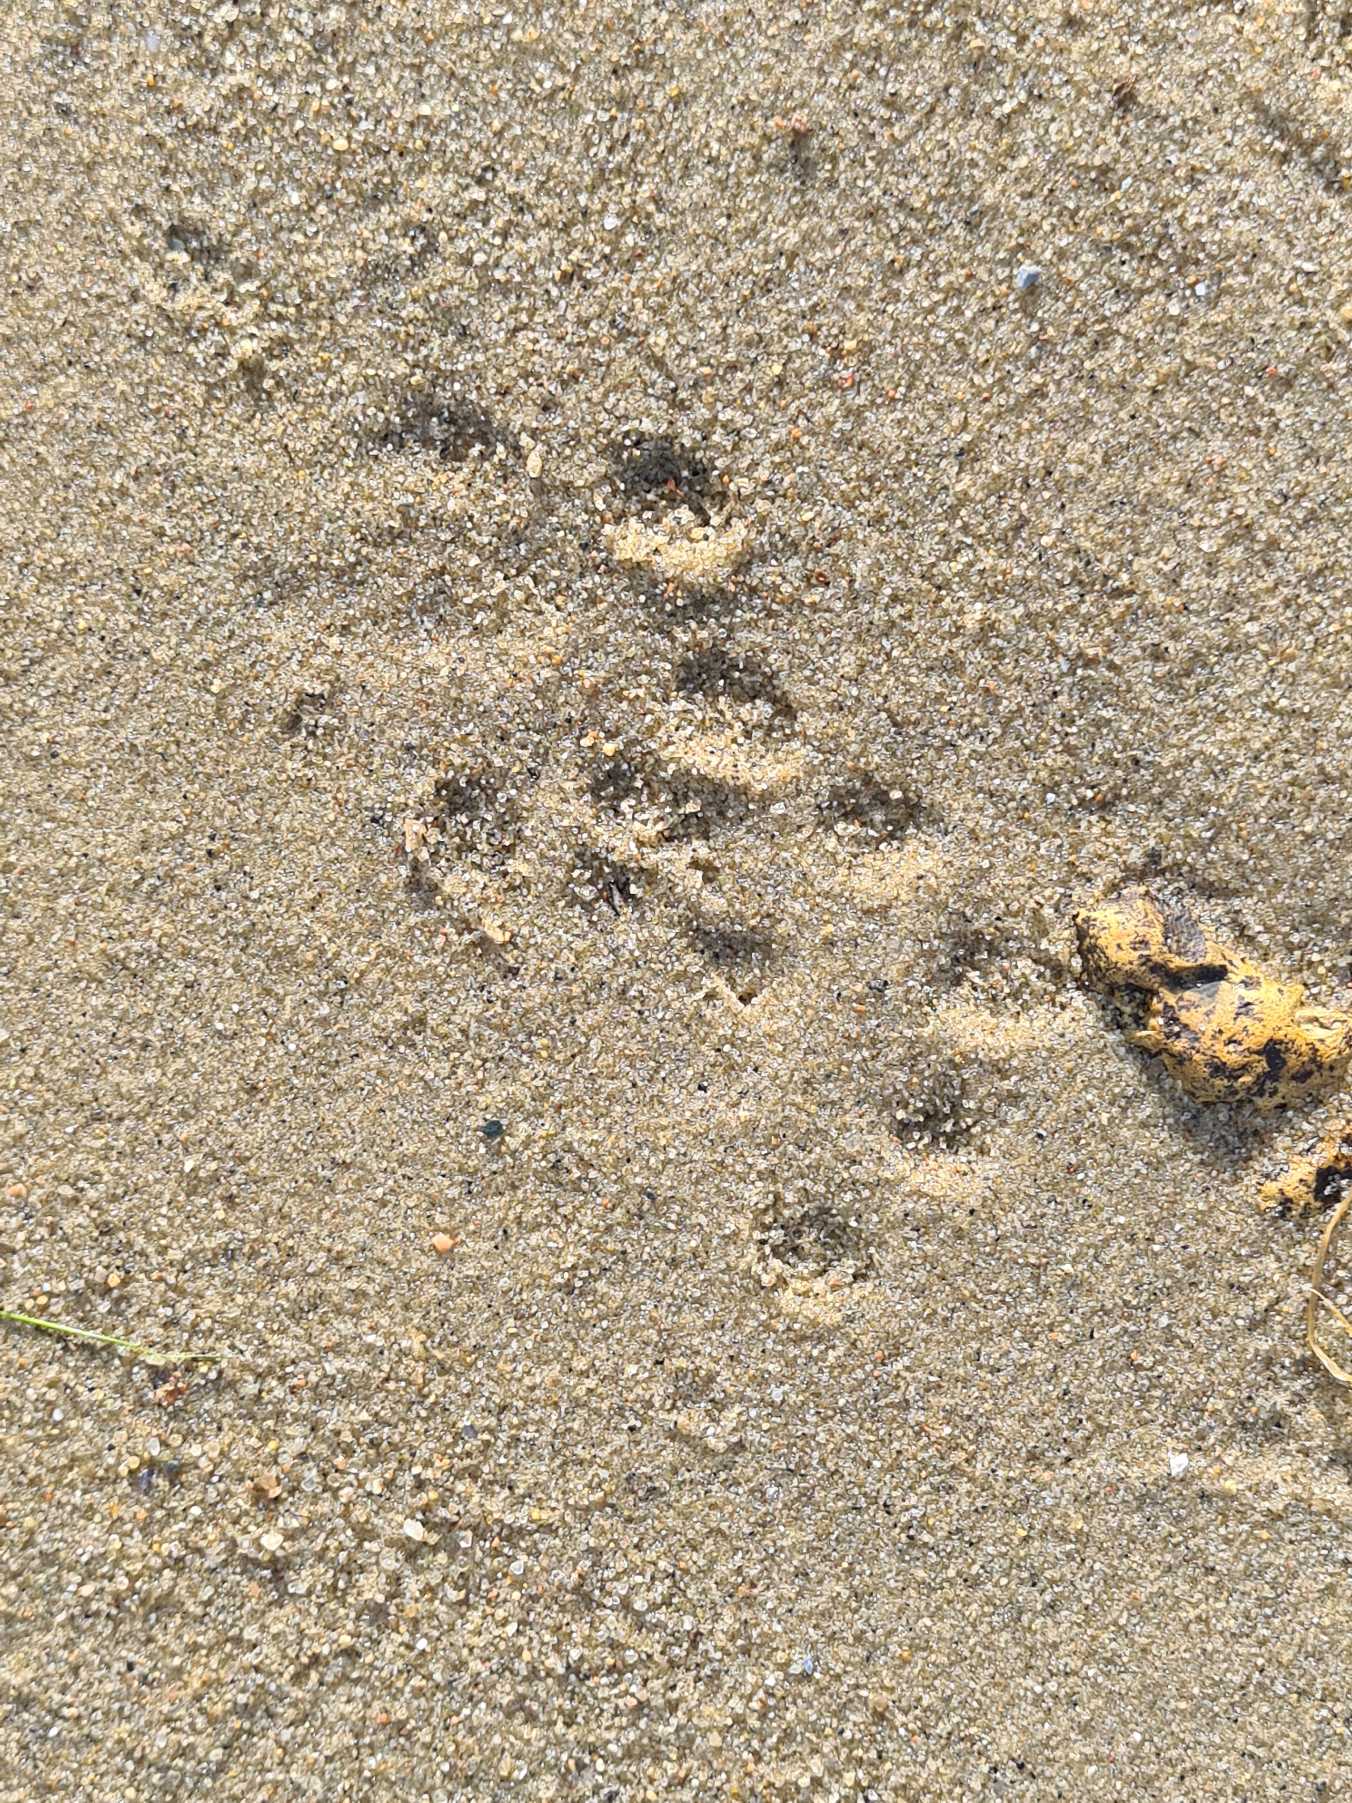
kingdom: Animalia
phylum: Chordata
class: Mammalia
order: Carnivora
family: Mustelidae
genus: Lutra
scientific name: Lutra lutra
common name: Odder
